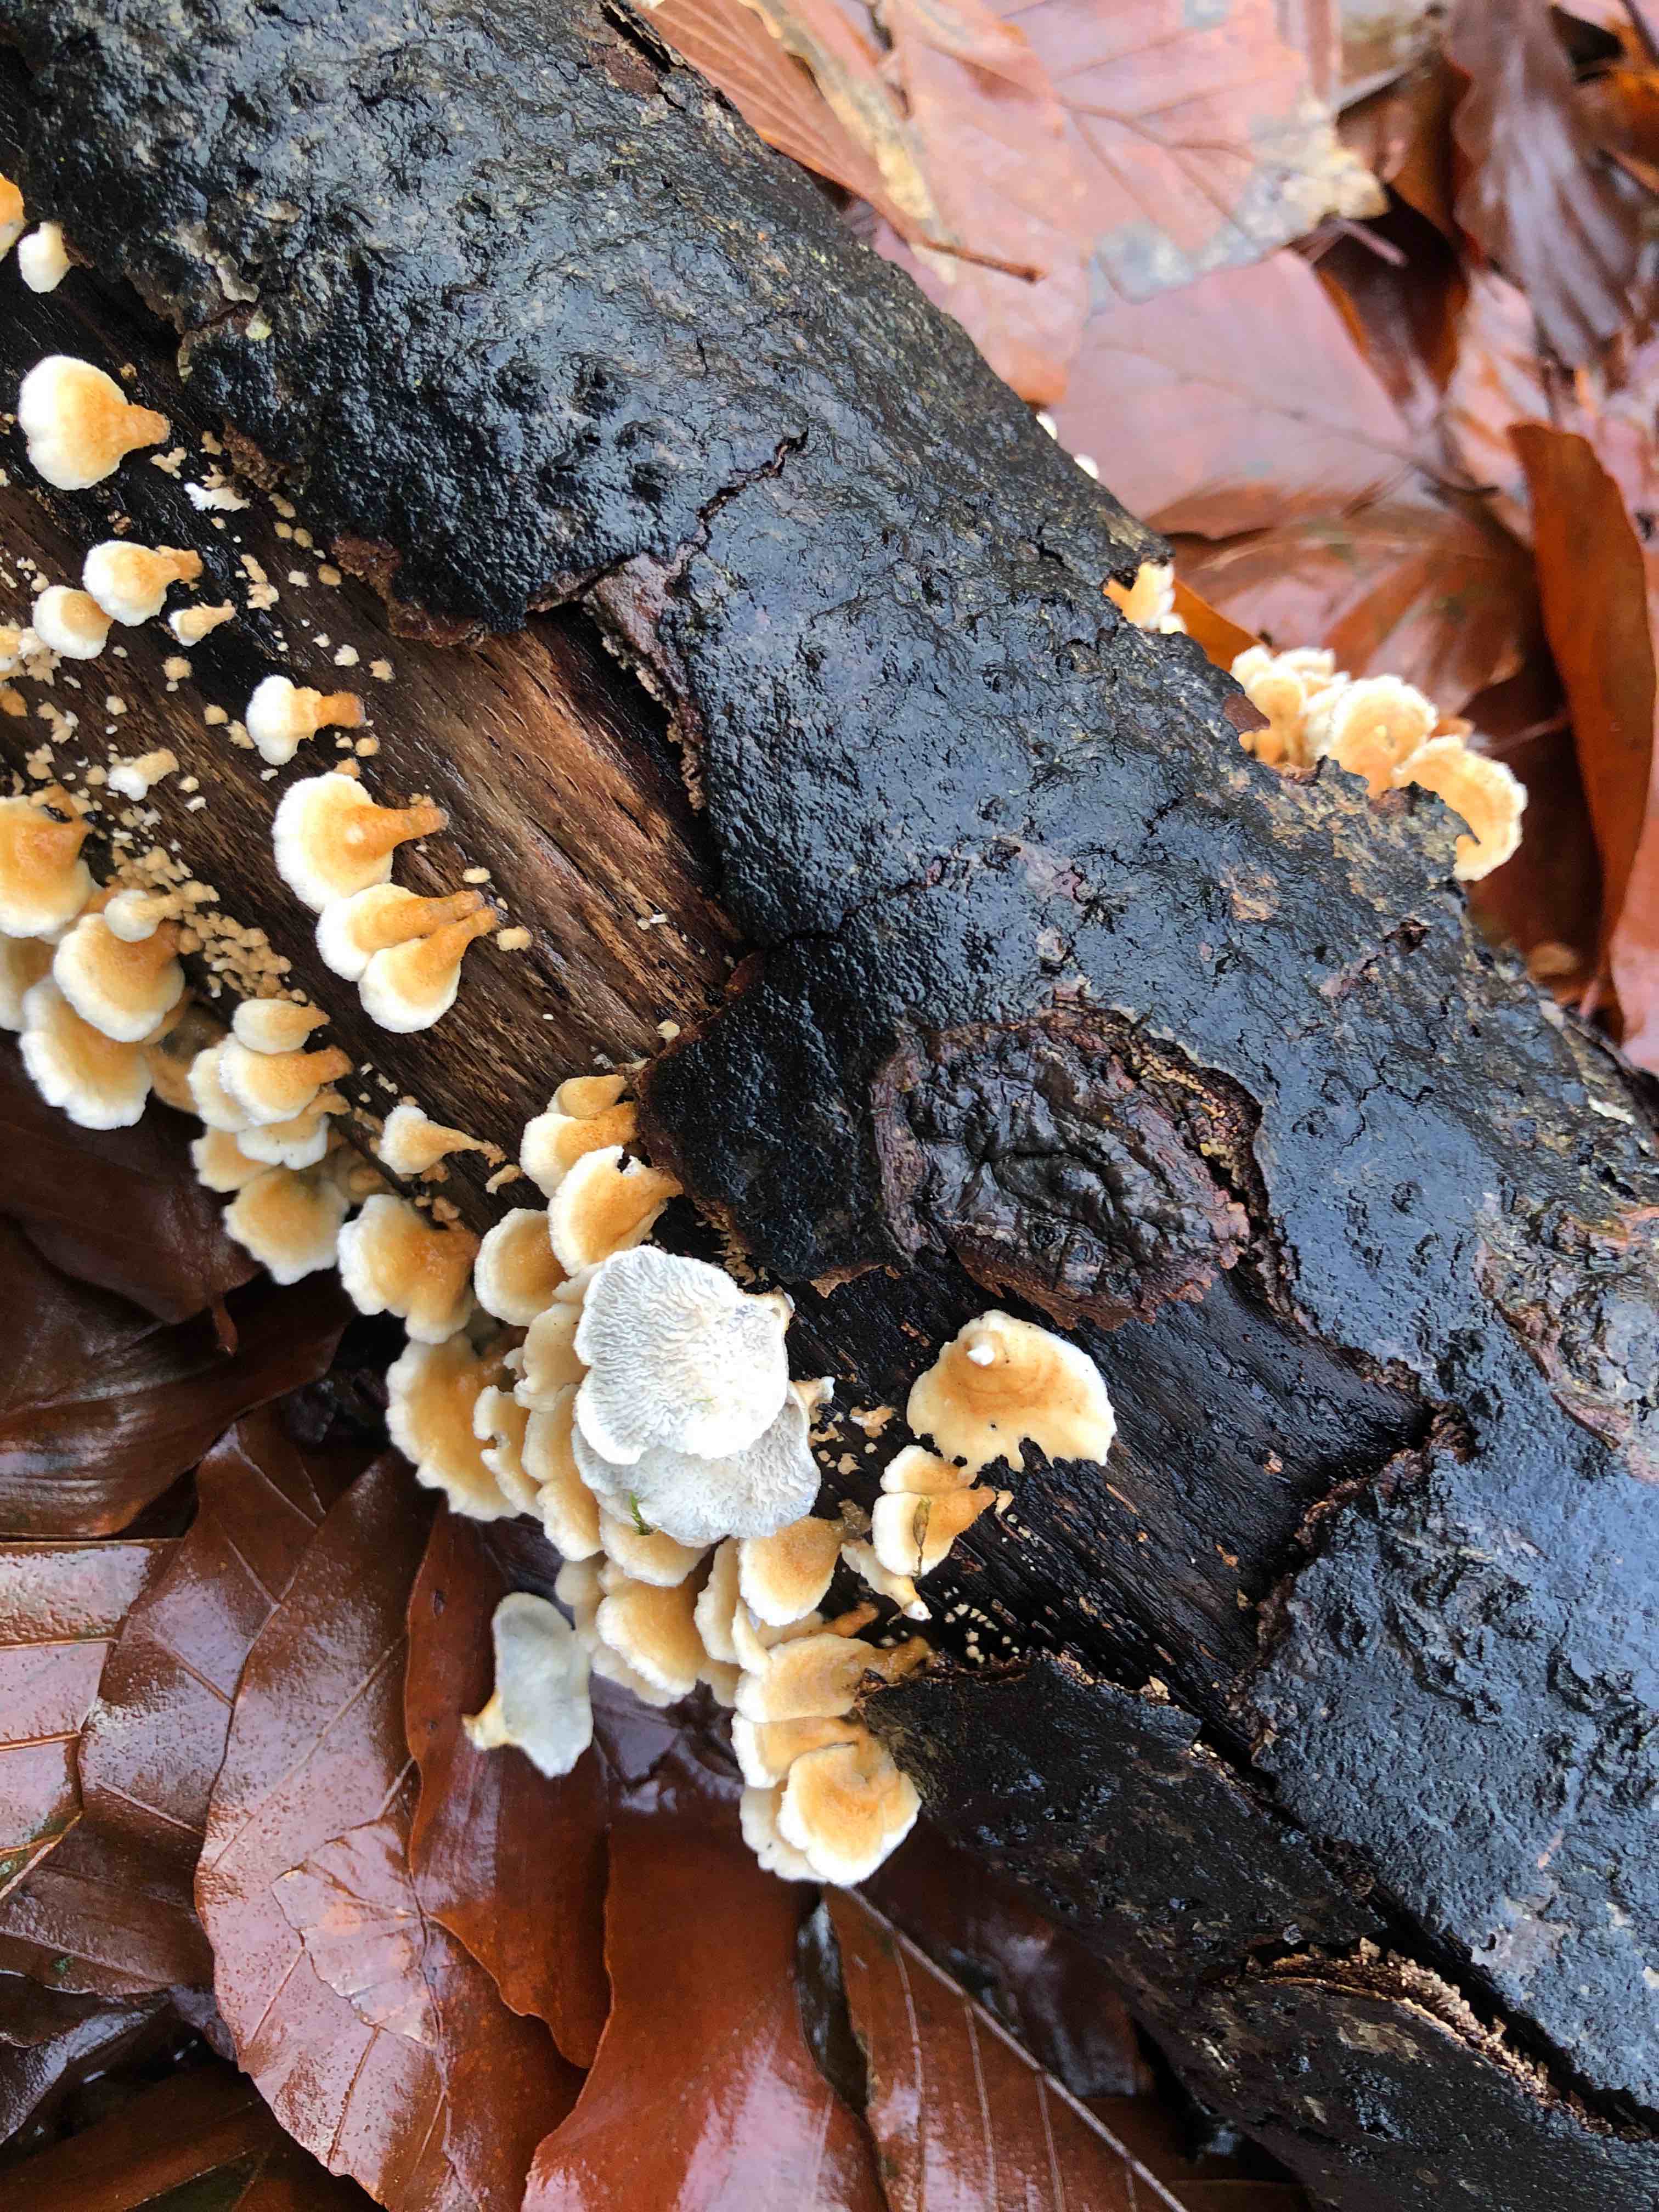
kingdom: Fungi
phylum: Basidiomycota
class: Agaricomycetes
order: Amylocorticiales
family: Amylocorticiaceae
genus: Plicaturopsis
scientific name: Plicaturopsis crispa
